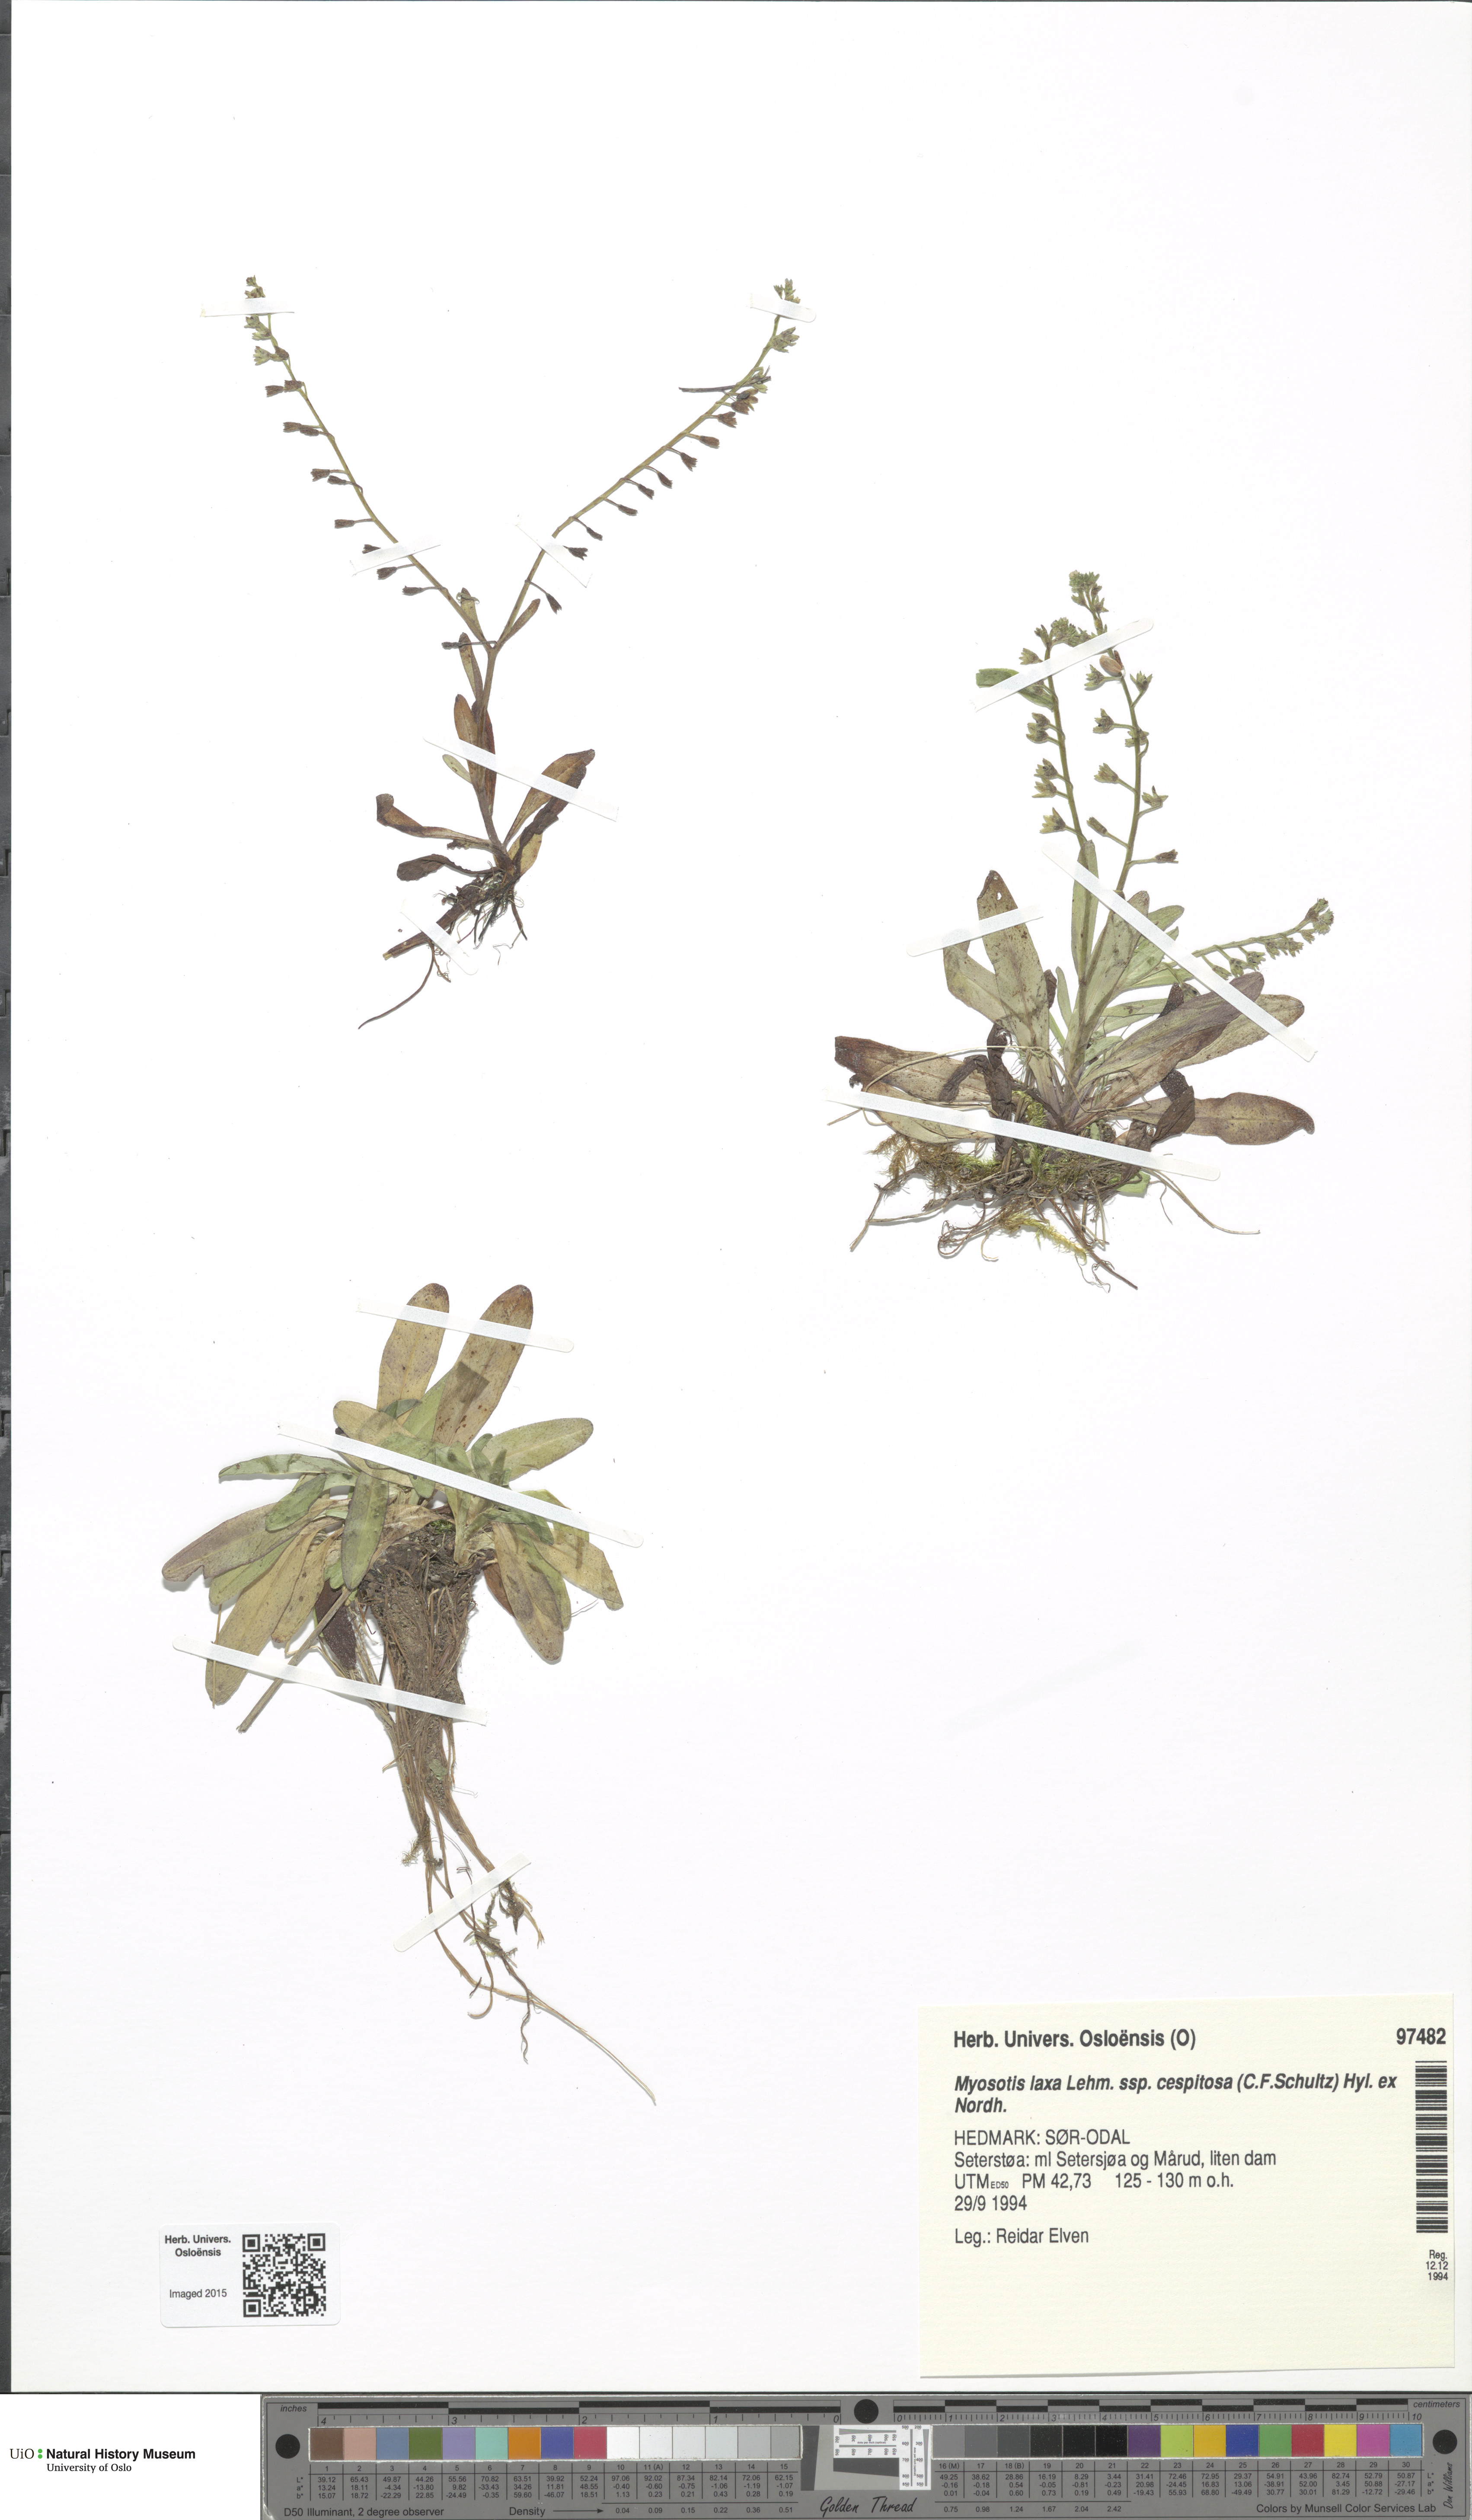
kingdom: Plantae
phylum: Tracheophyta
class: Magnoliopsida
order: Boraginales
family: Boraginaceae
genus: Myosotis
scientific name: Myosotis laxa
